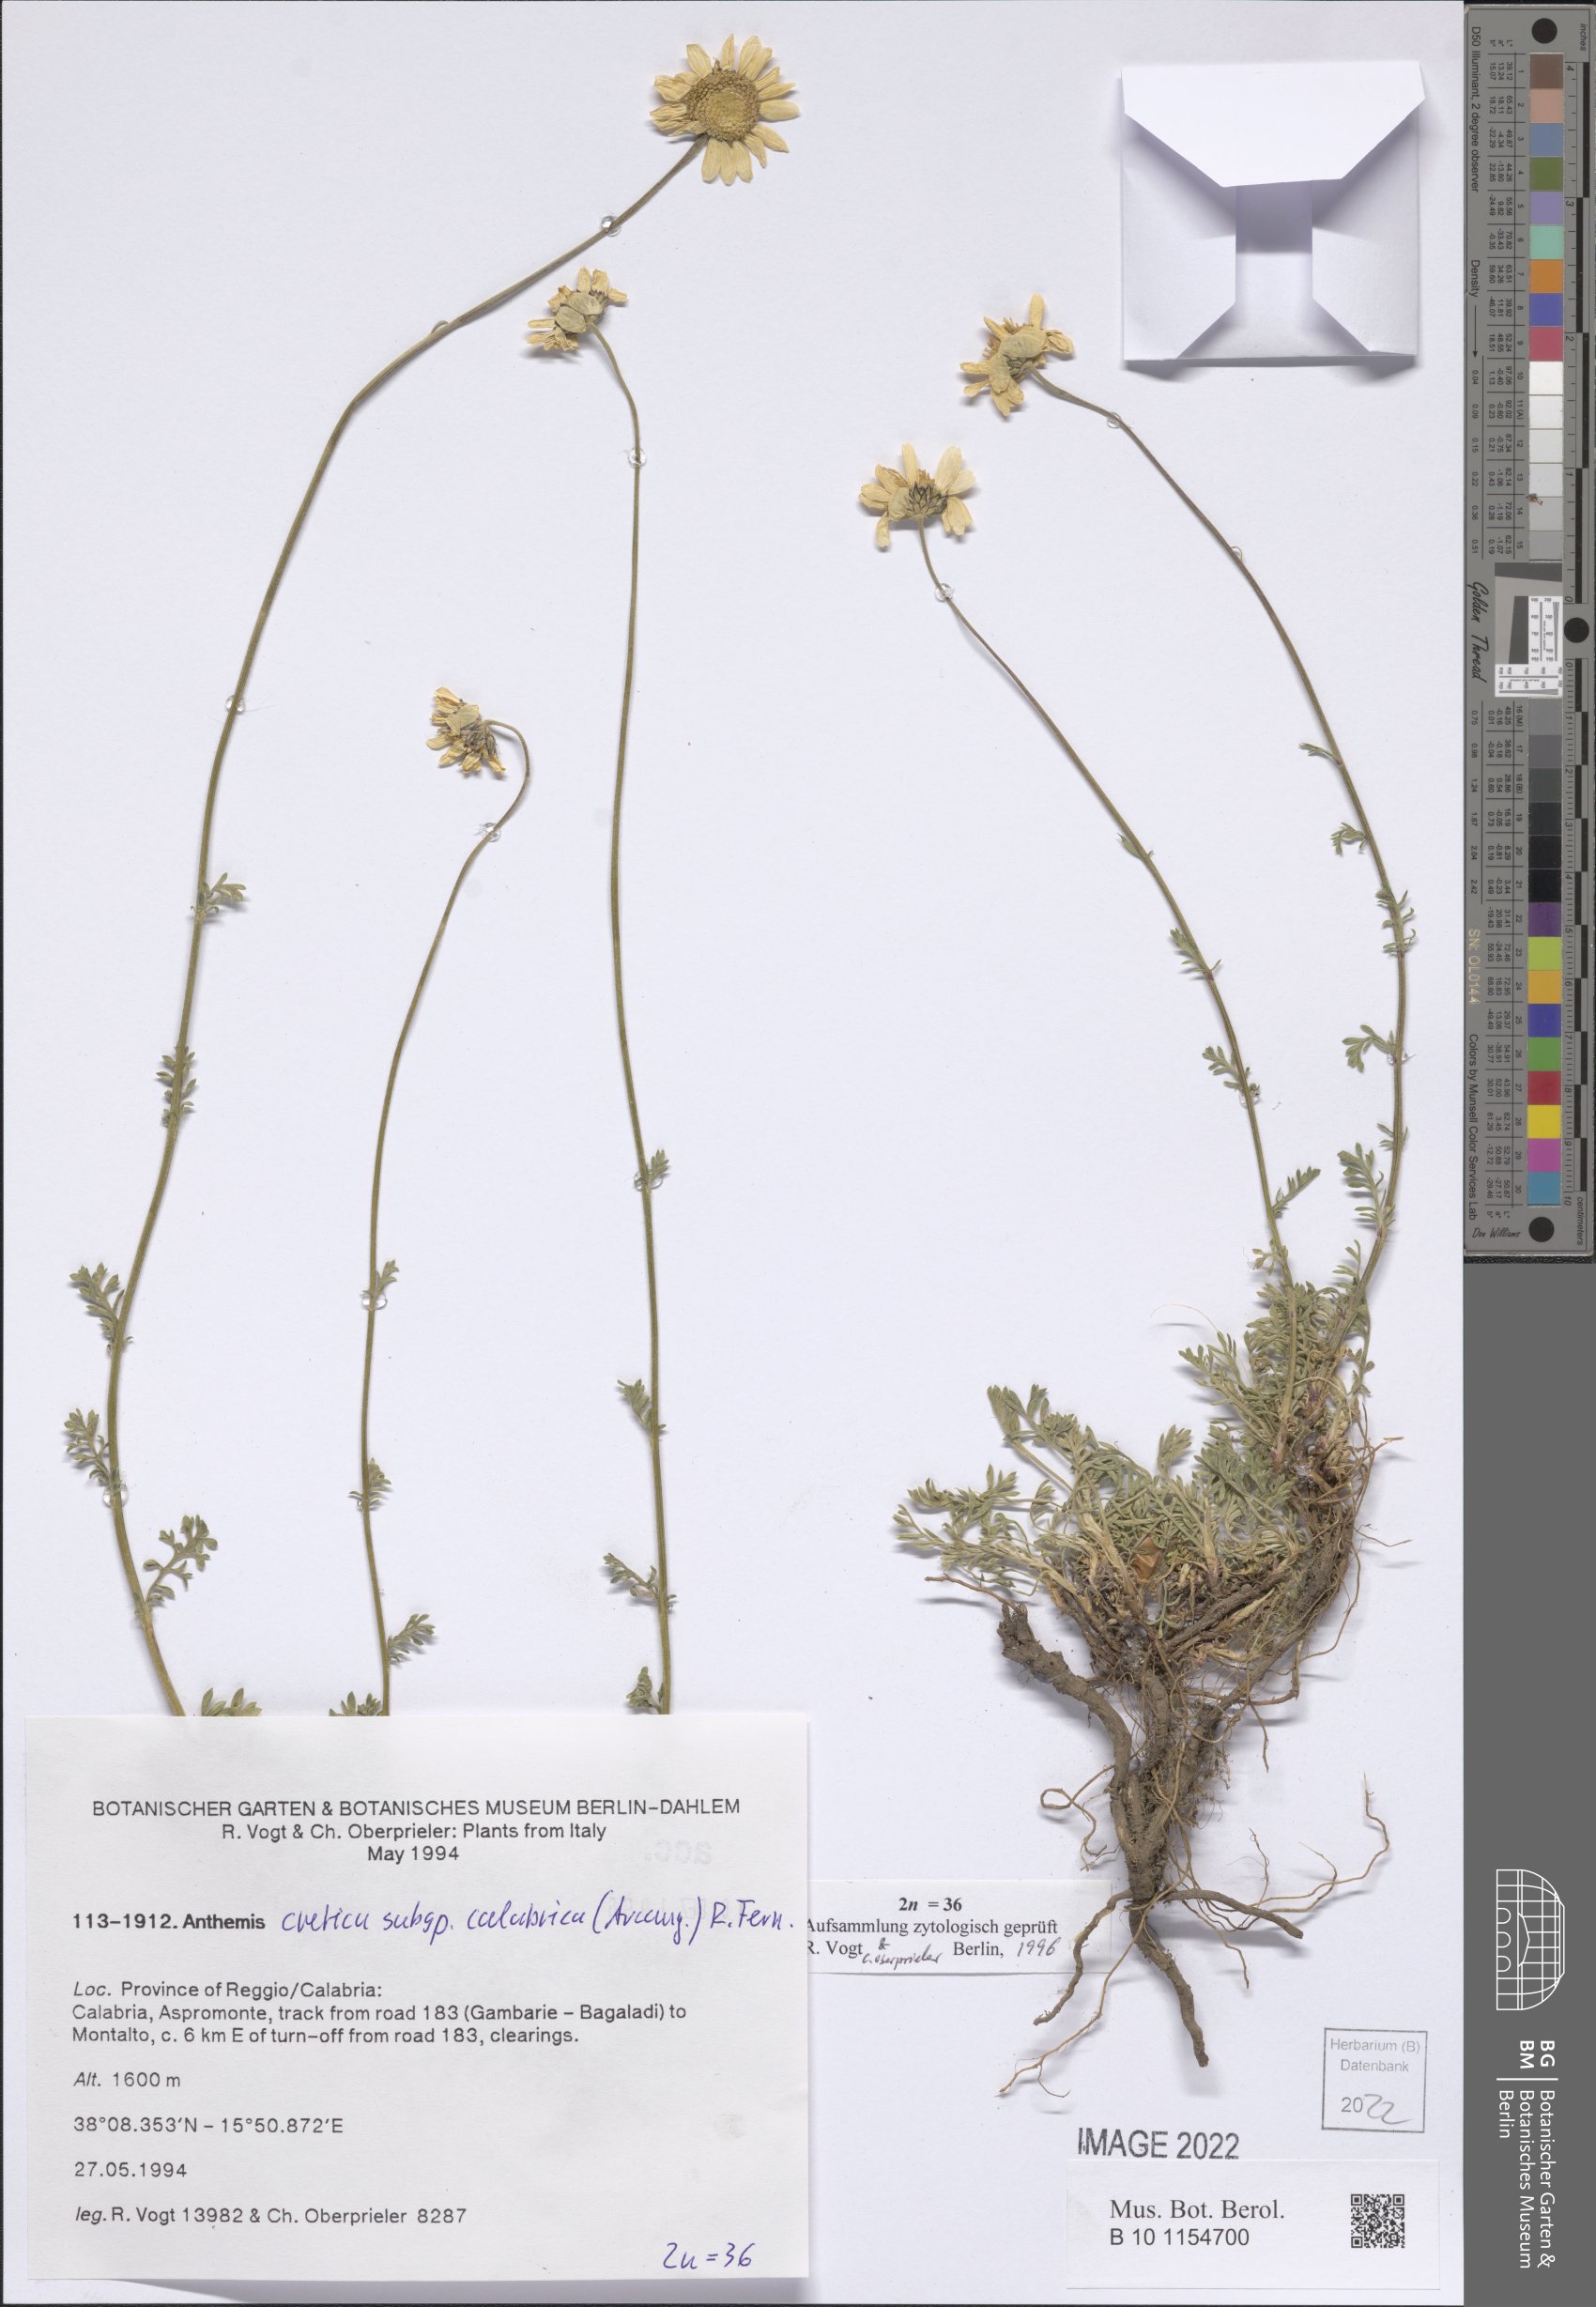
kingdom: Plantae
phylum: Tracheophyta
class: Magnoliopsida
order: Asterales
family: Asteraceae
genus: Anthemis
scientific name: Anthemis cretica
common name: Mountain dog-daisy
